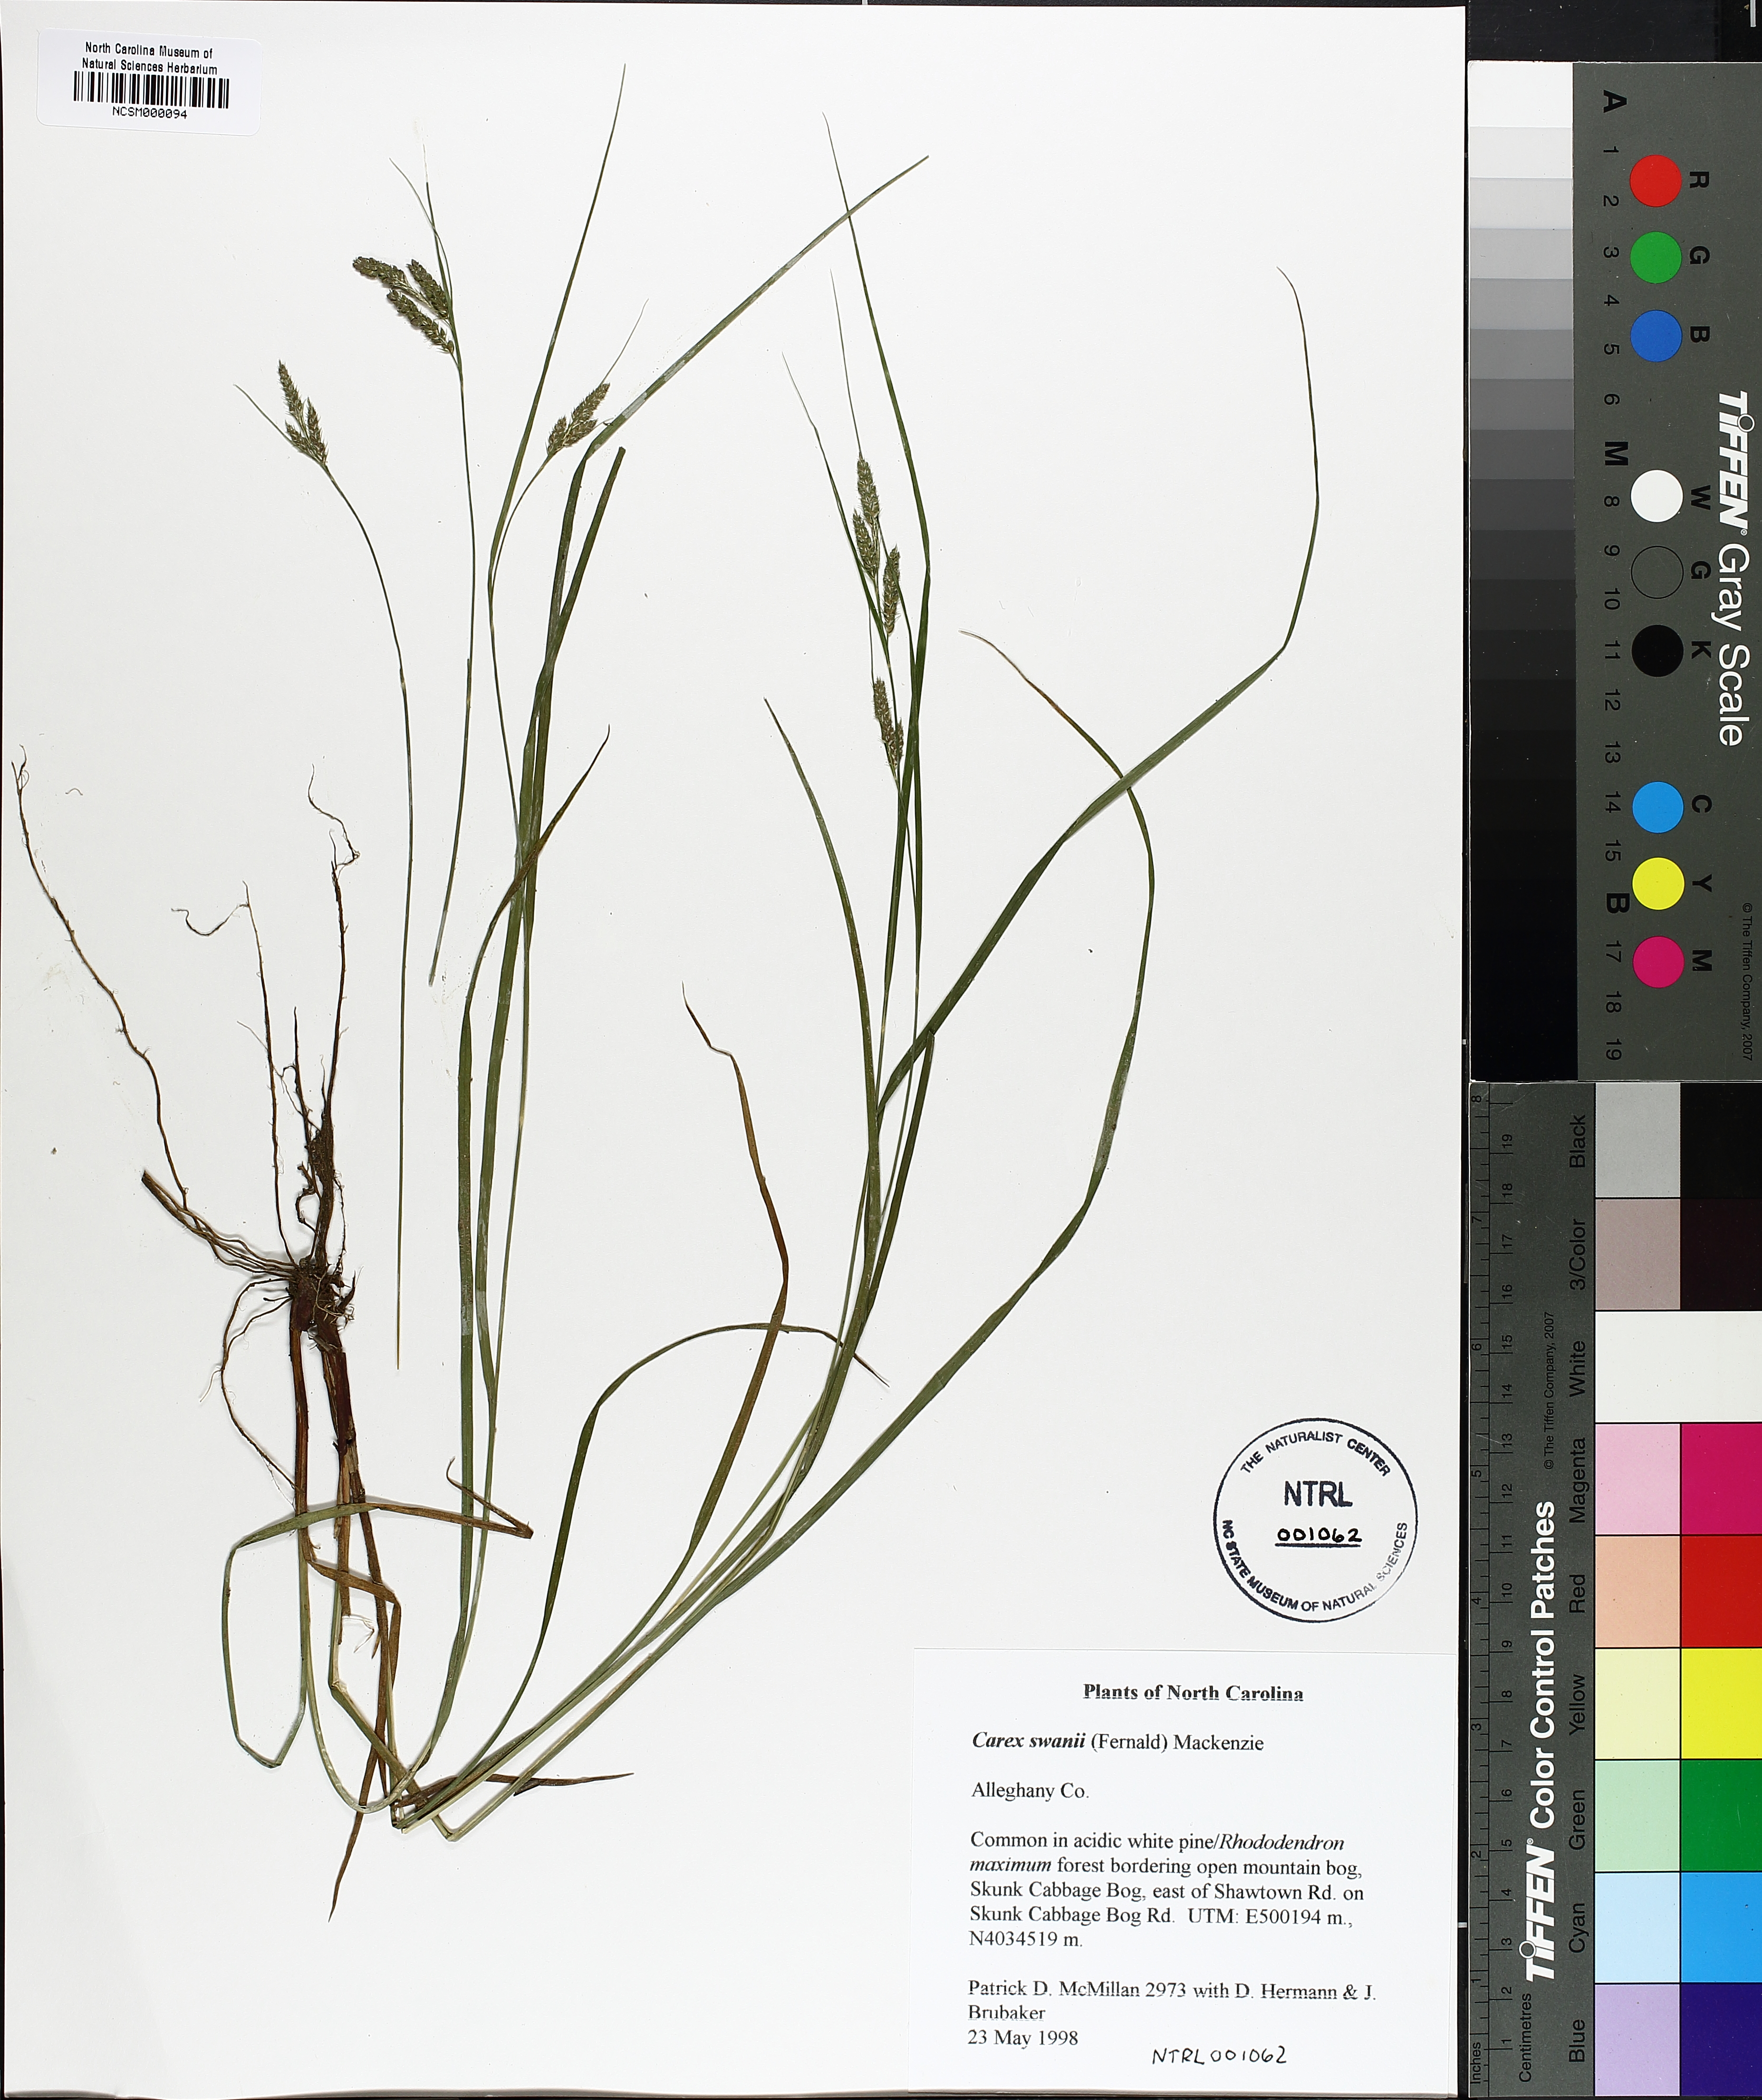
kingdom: Plantae
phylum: Tracheophyta
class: Liliopsida
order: Poales
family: Cyperaceae
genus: Carex
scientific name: Carex swanii
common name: Downy green sedge
